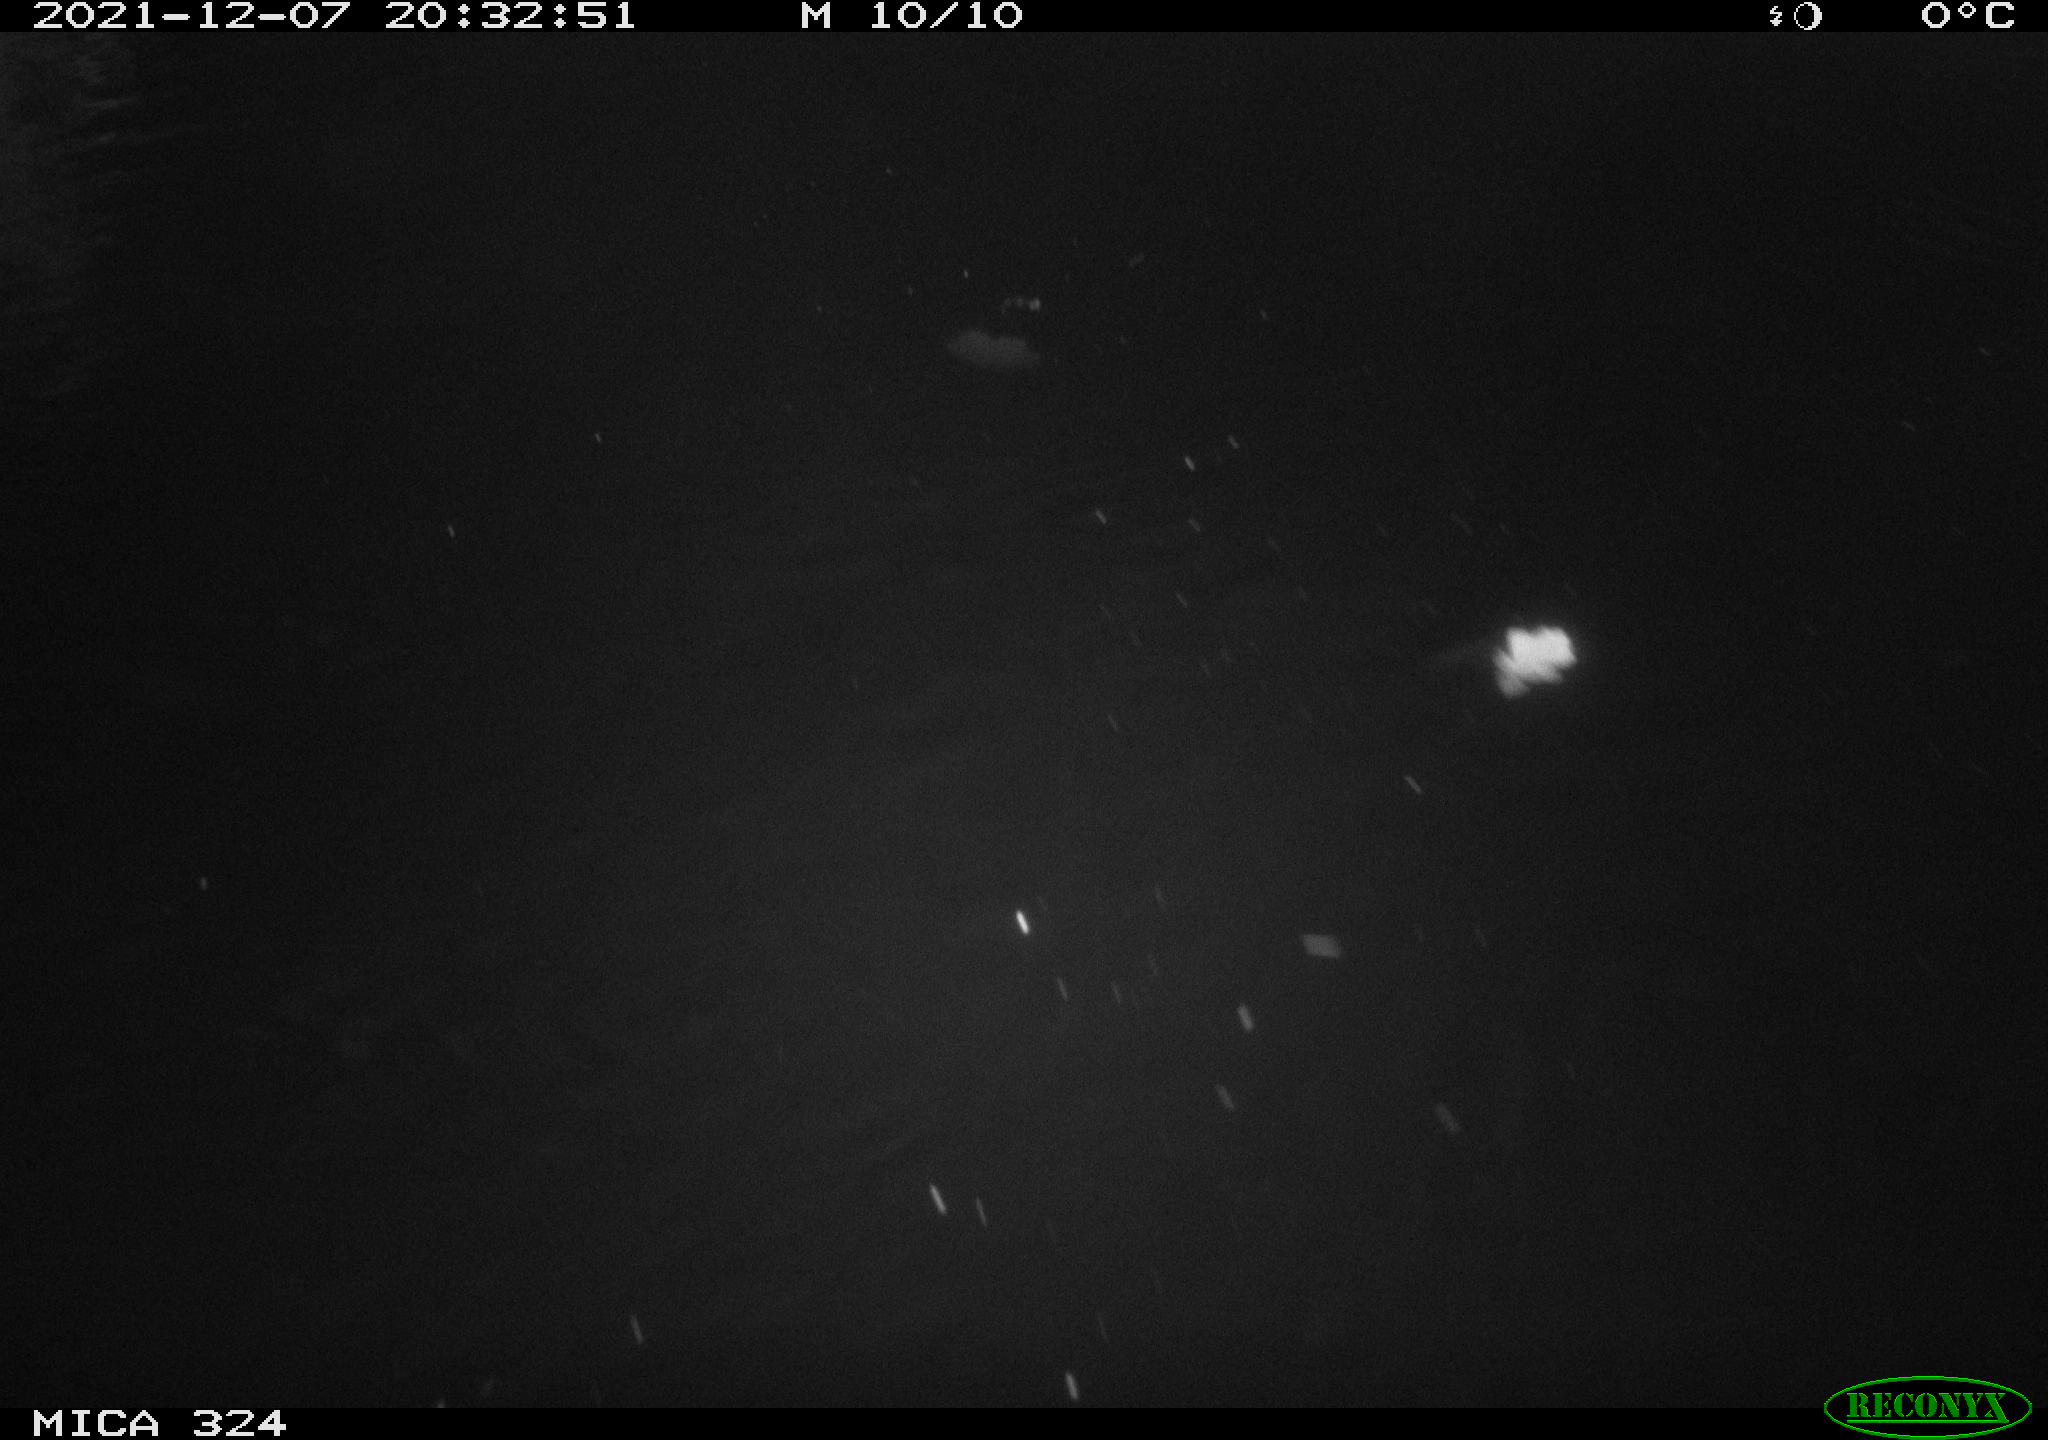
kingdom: Animalia
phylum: Chordata
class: Mammalia
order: Rodentia
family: Cricetidae
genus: Ondatra
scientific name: Ondatra zibethicus
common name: Muskrat
